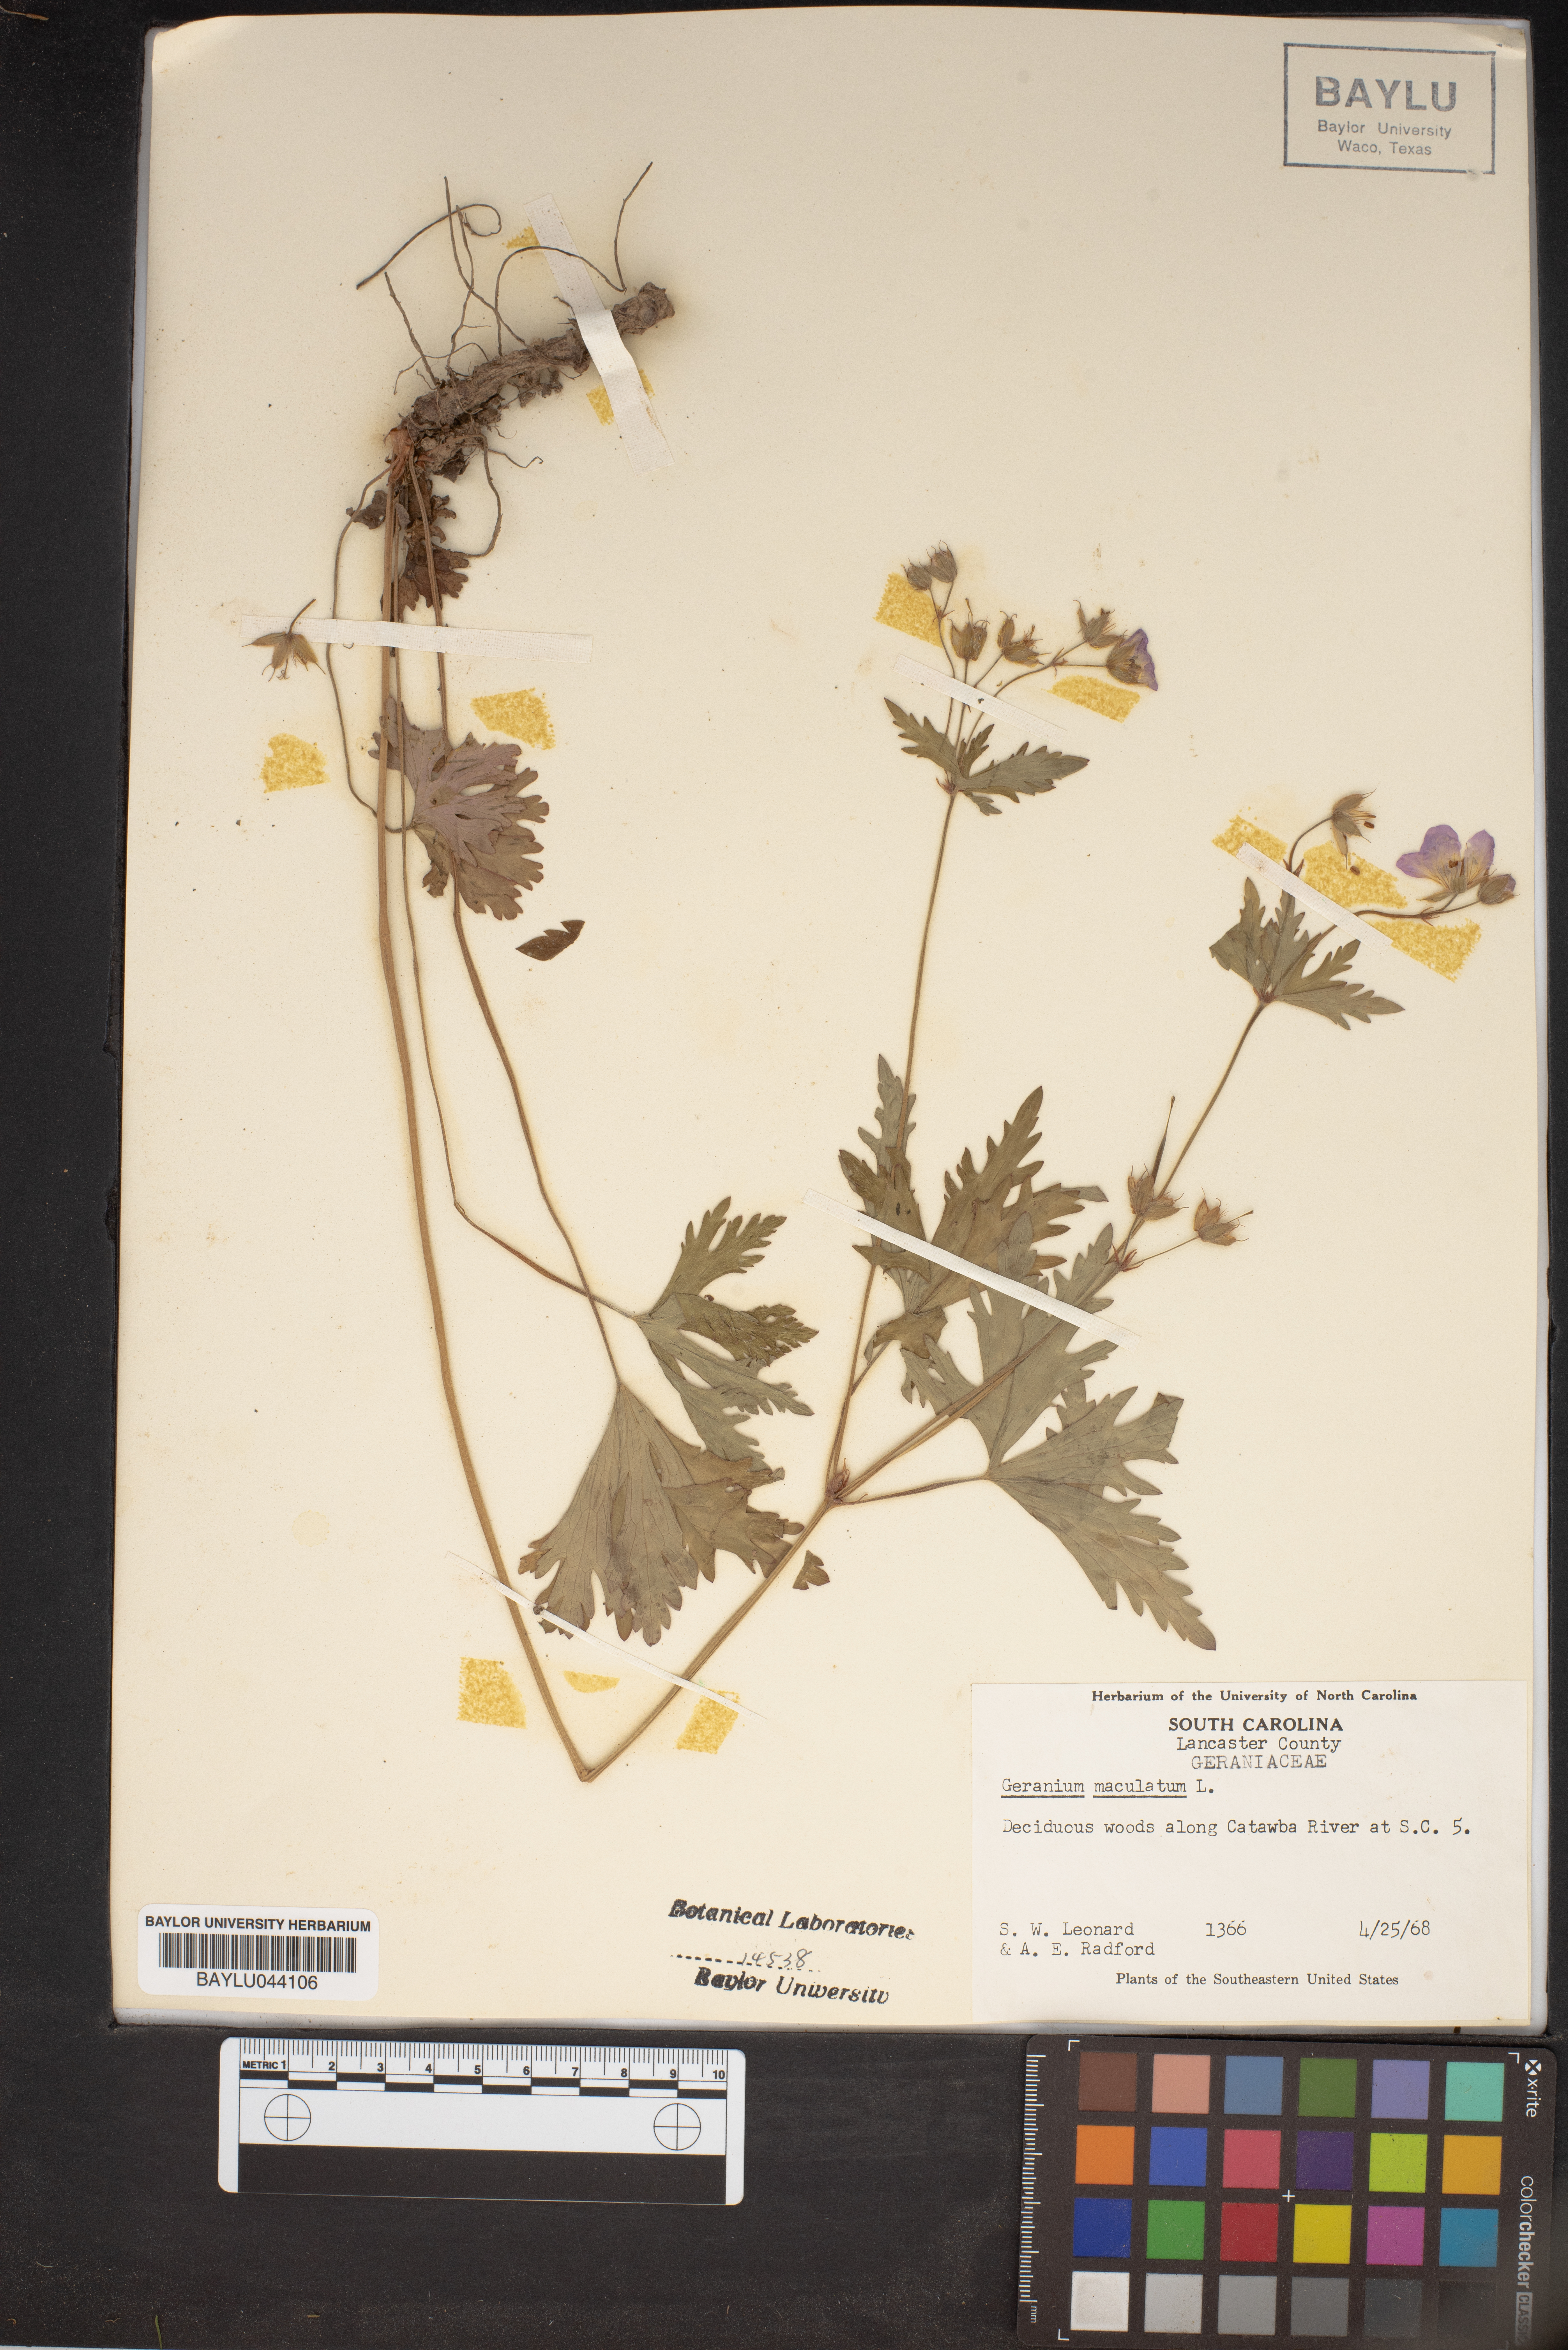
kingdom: Plantae
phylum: Tracheophyta
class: Magnoliopsida
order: Geraniales
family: Geraniaceae
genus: Geranium
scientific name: Geranium maculatum
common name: Spotted geranium
